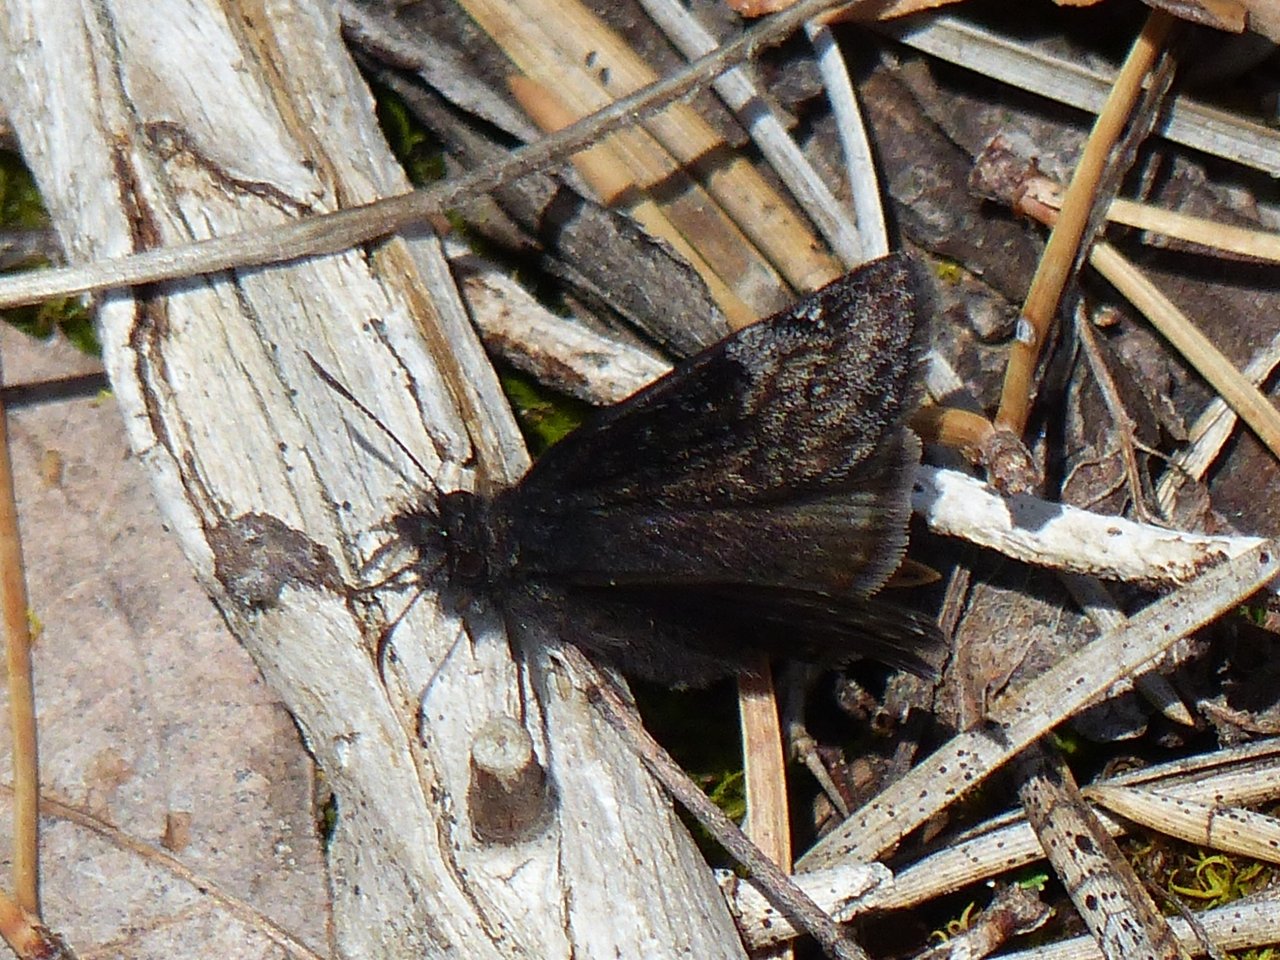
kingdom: Animalia
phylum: Arthropoda
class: Insecta
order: Lepidoptera
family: Hesperiidae
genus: Gesta
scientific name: Gesta
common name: Columbine Duskywing
